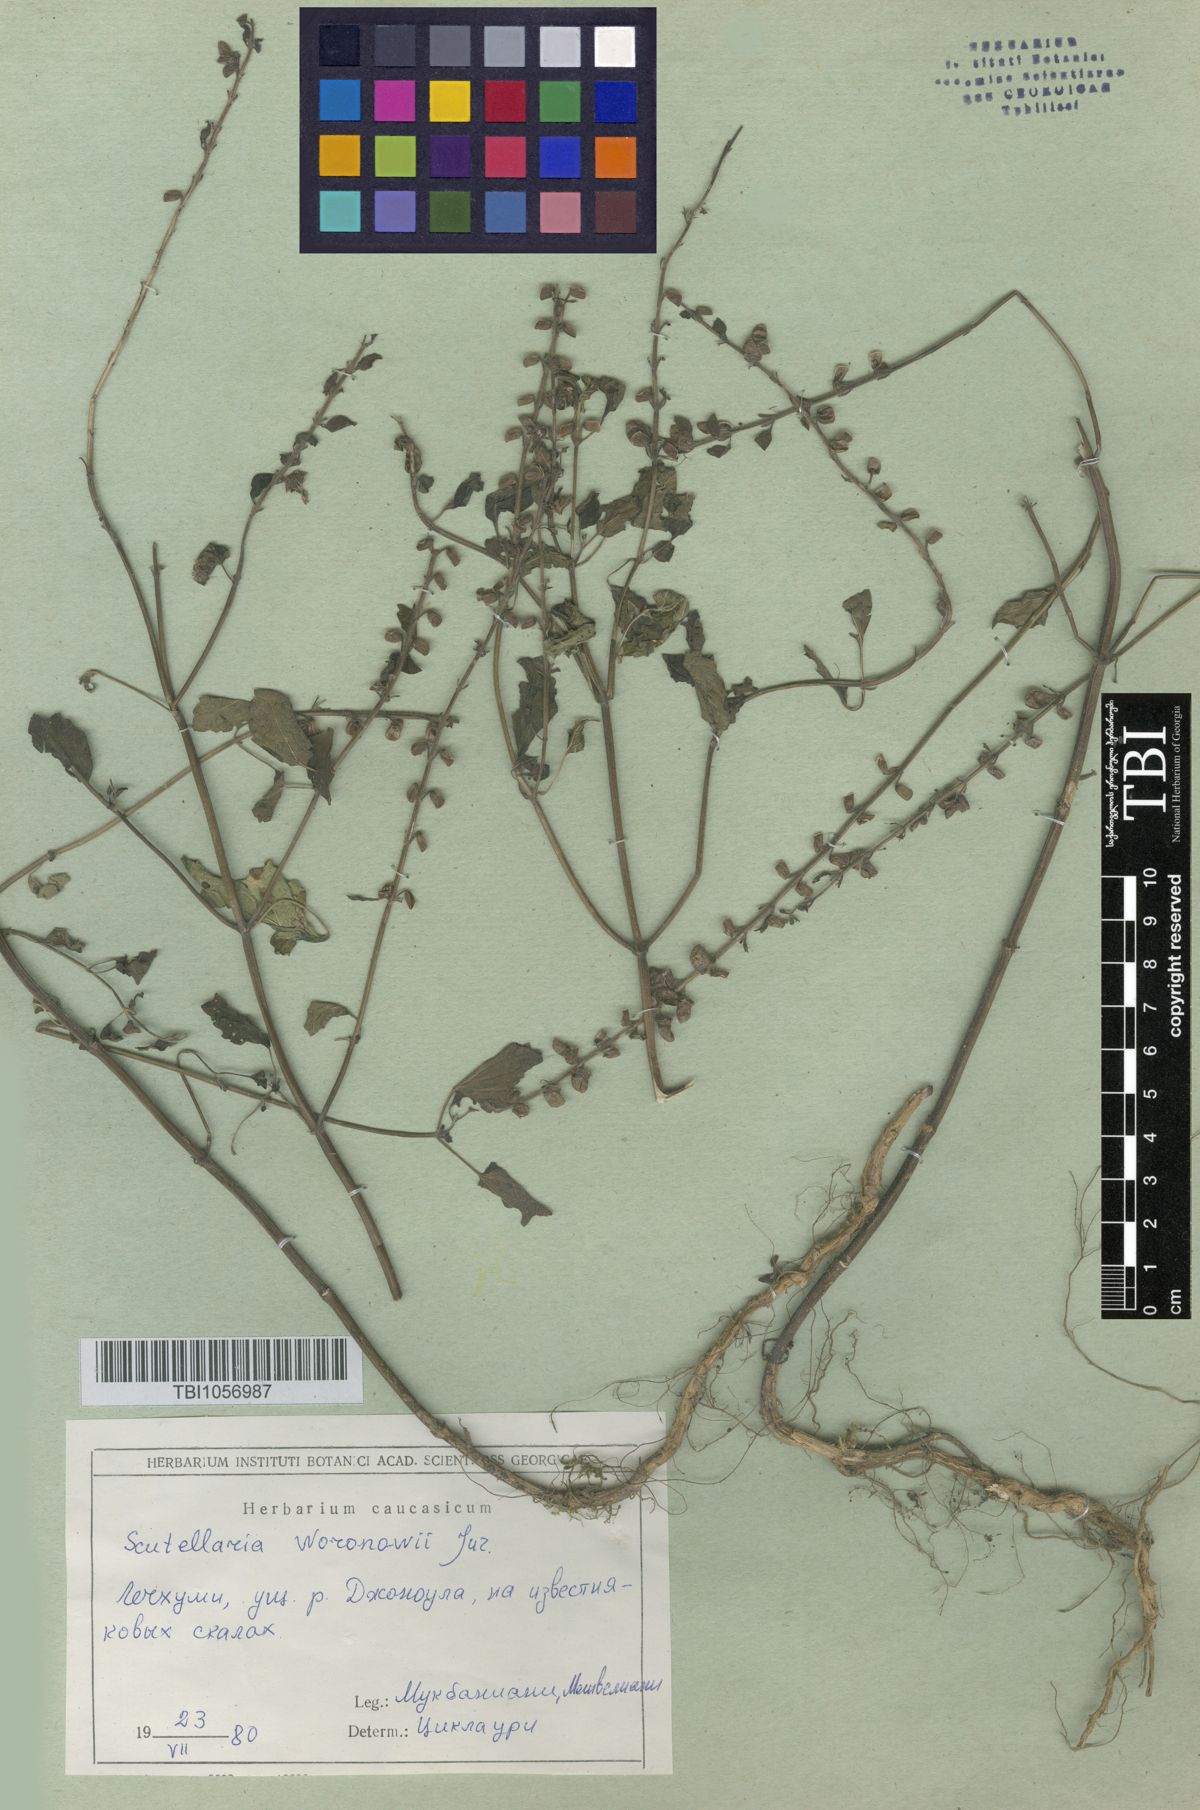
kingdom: Plantae
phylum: Tracheophyta
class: Magnoliopsida
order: Lamiales
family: Lamiaceae
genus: Scutellaria
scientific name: Scutellaria albida
